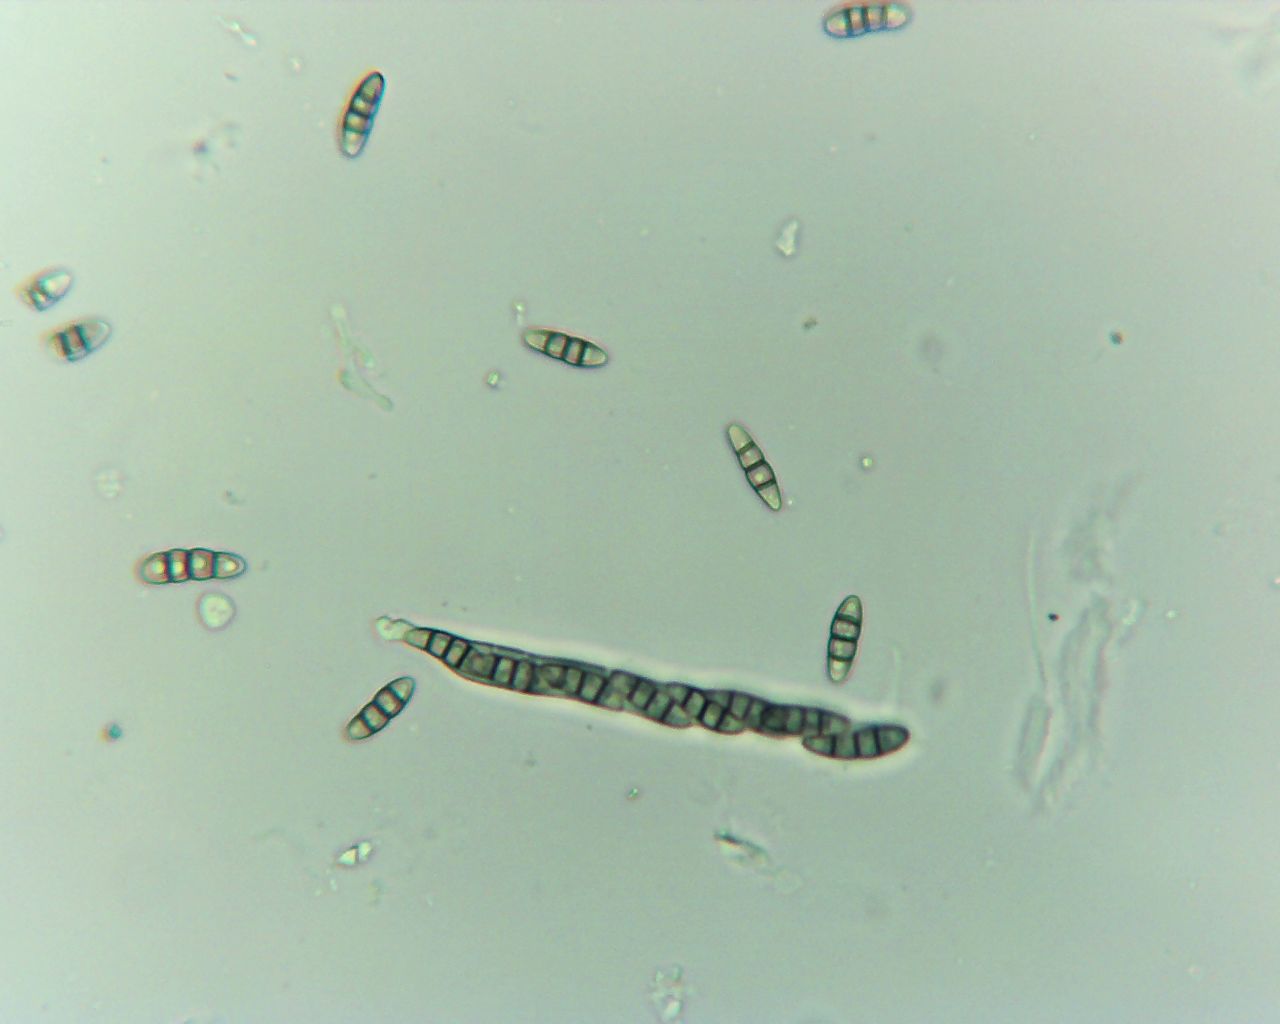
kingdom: Fungi
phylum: Ascomycota
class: Dothideomycetes
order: Pleosporales
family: Melanommataceae
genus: Melanomma
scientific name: Melanomma pulvis-pyrius
